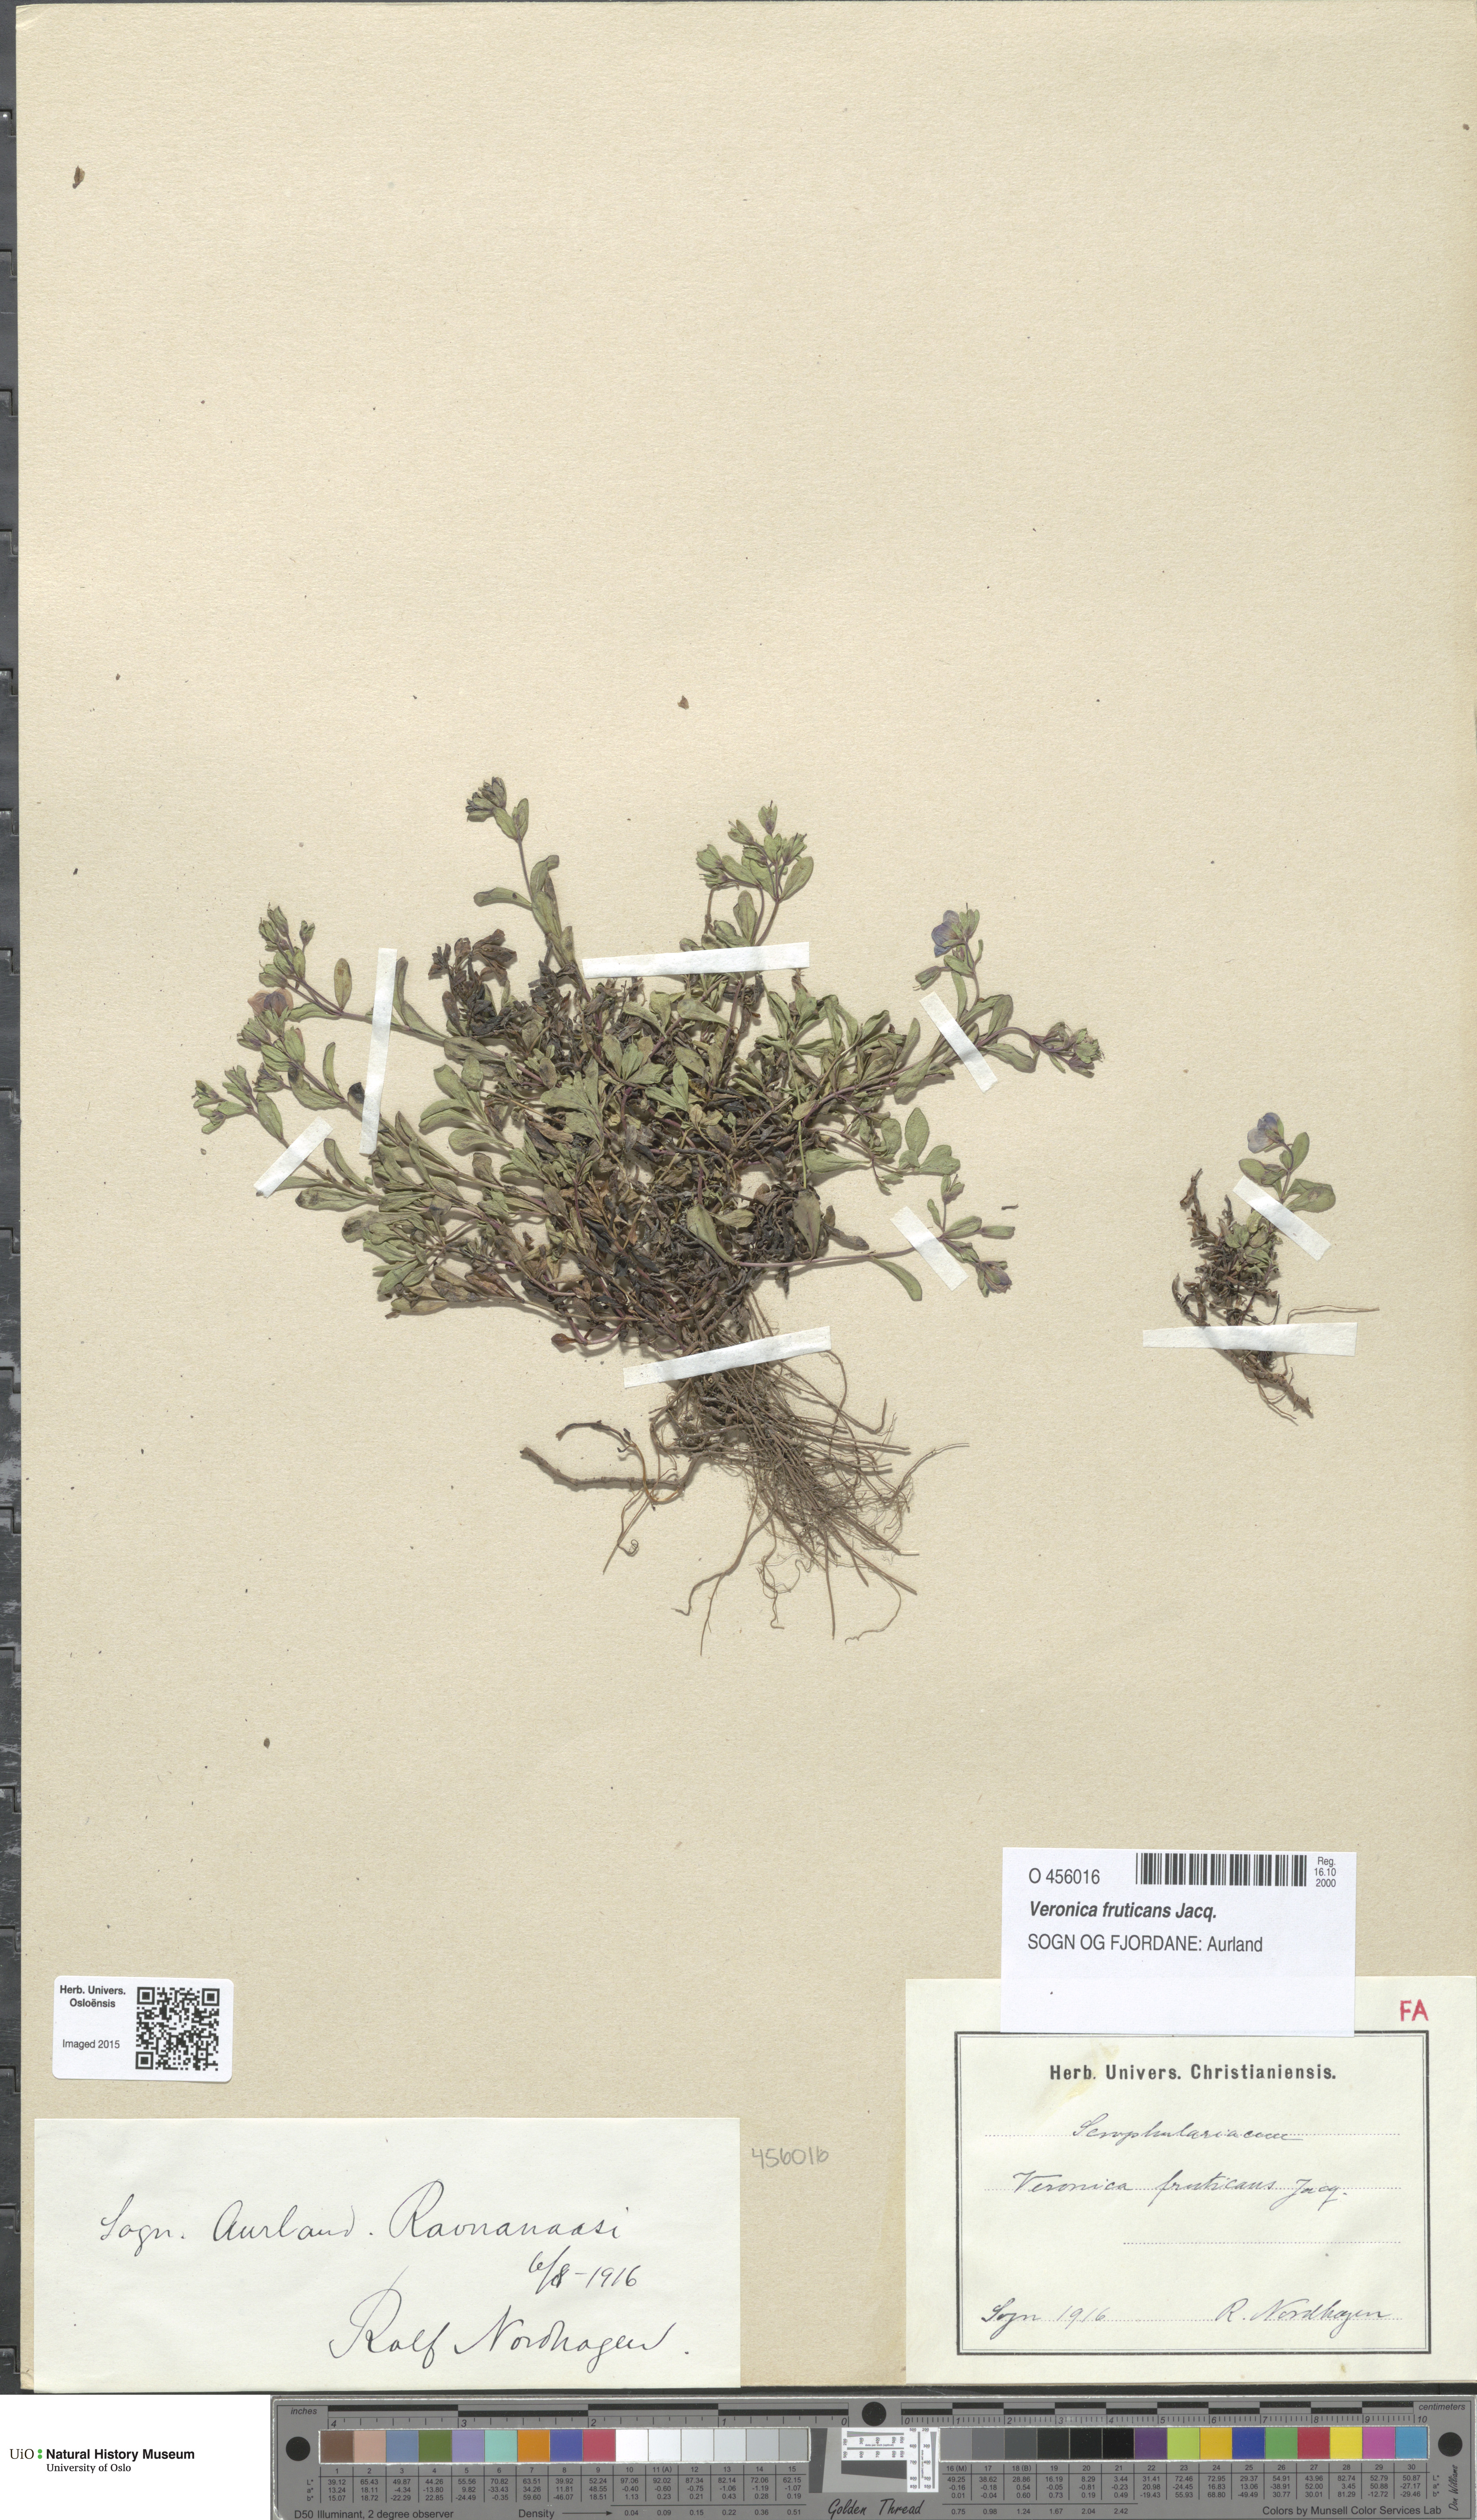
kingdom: Plantae
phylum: Tracheophyta
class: Magnoliopsida
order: Lamiales
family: Plantaginaceae
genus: Veronica
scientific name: Veronica fruticans
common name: Rock speedwell
